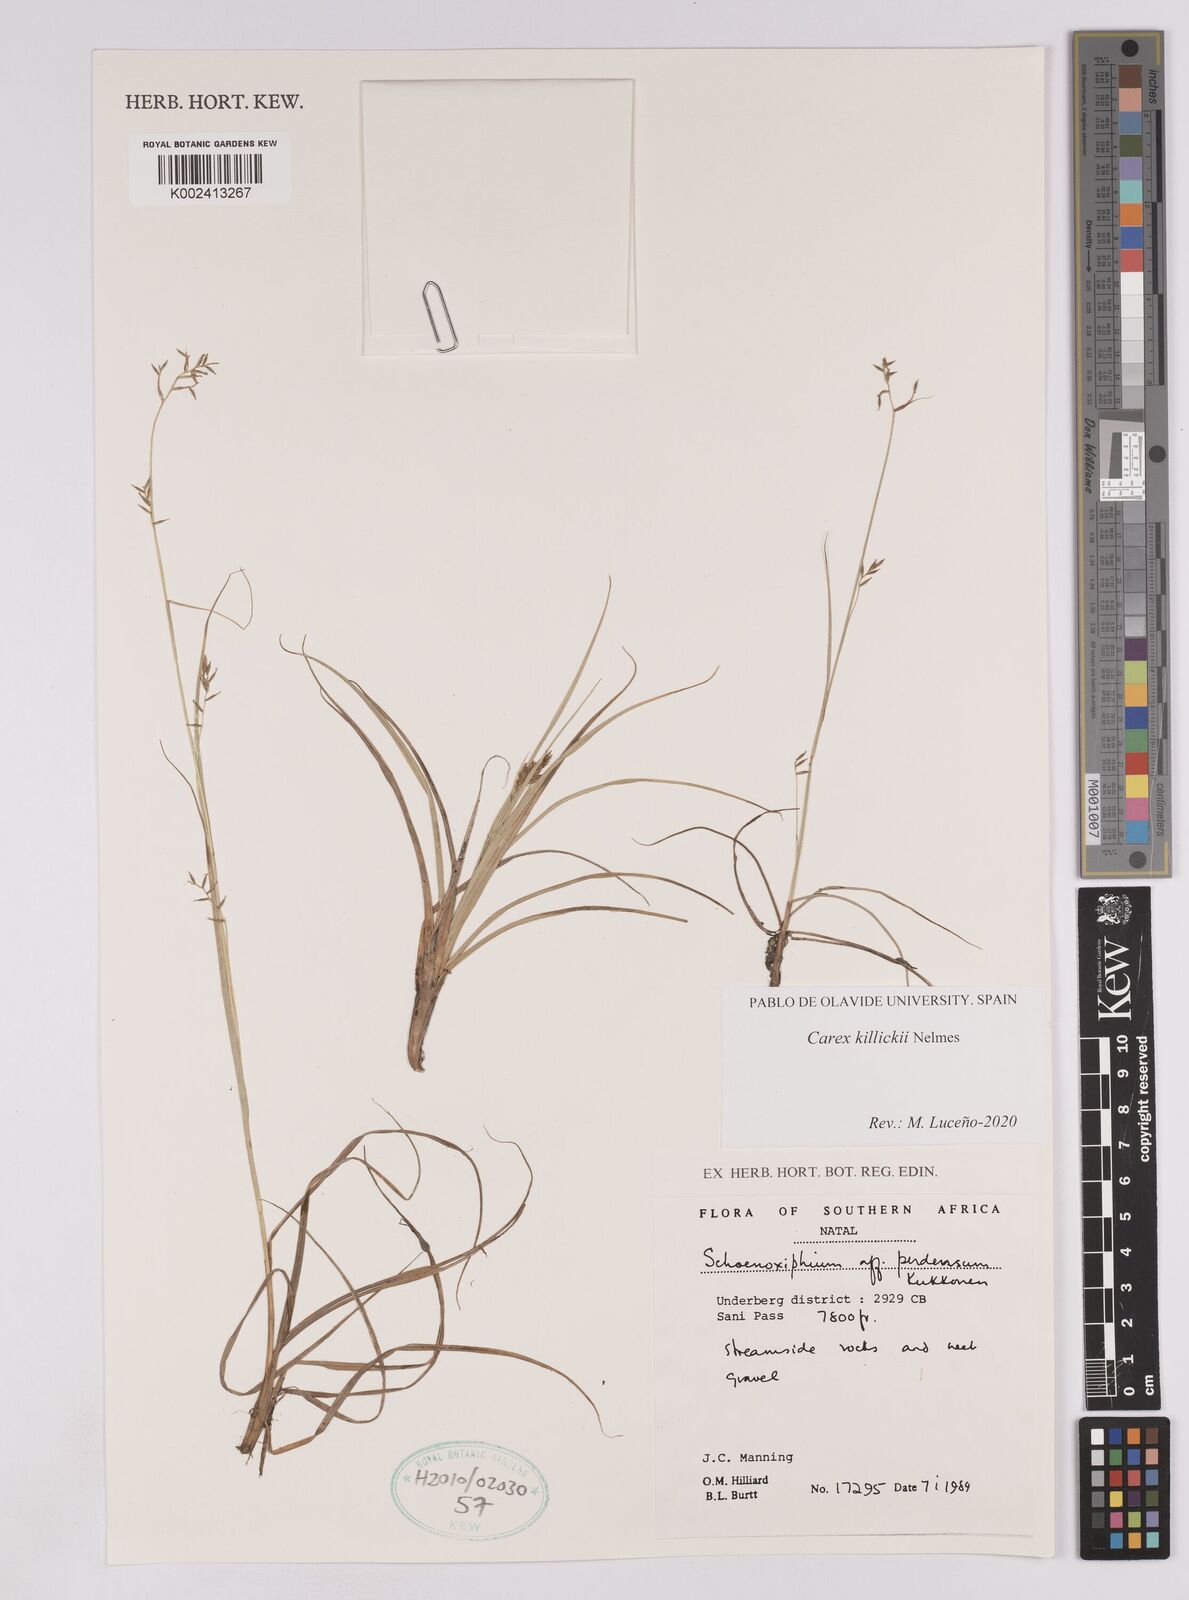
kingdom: Plantae
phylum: Tracheophyta
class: Liliopsida
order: Poales
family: Cyperaceae
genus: Carex
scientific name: Carex
